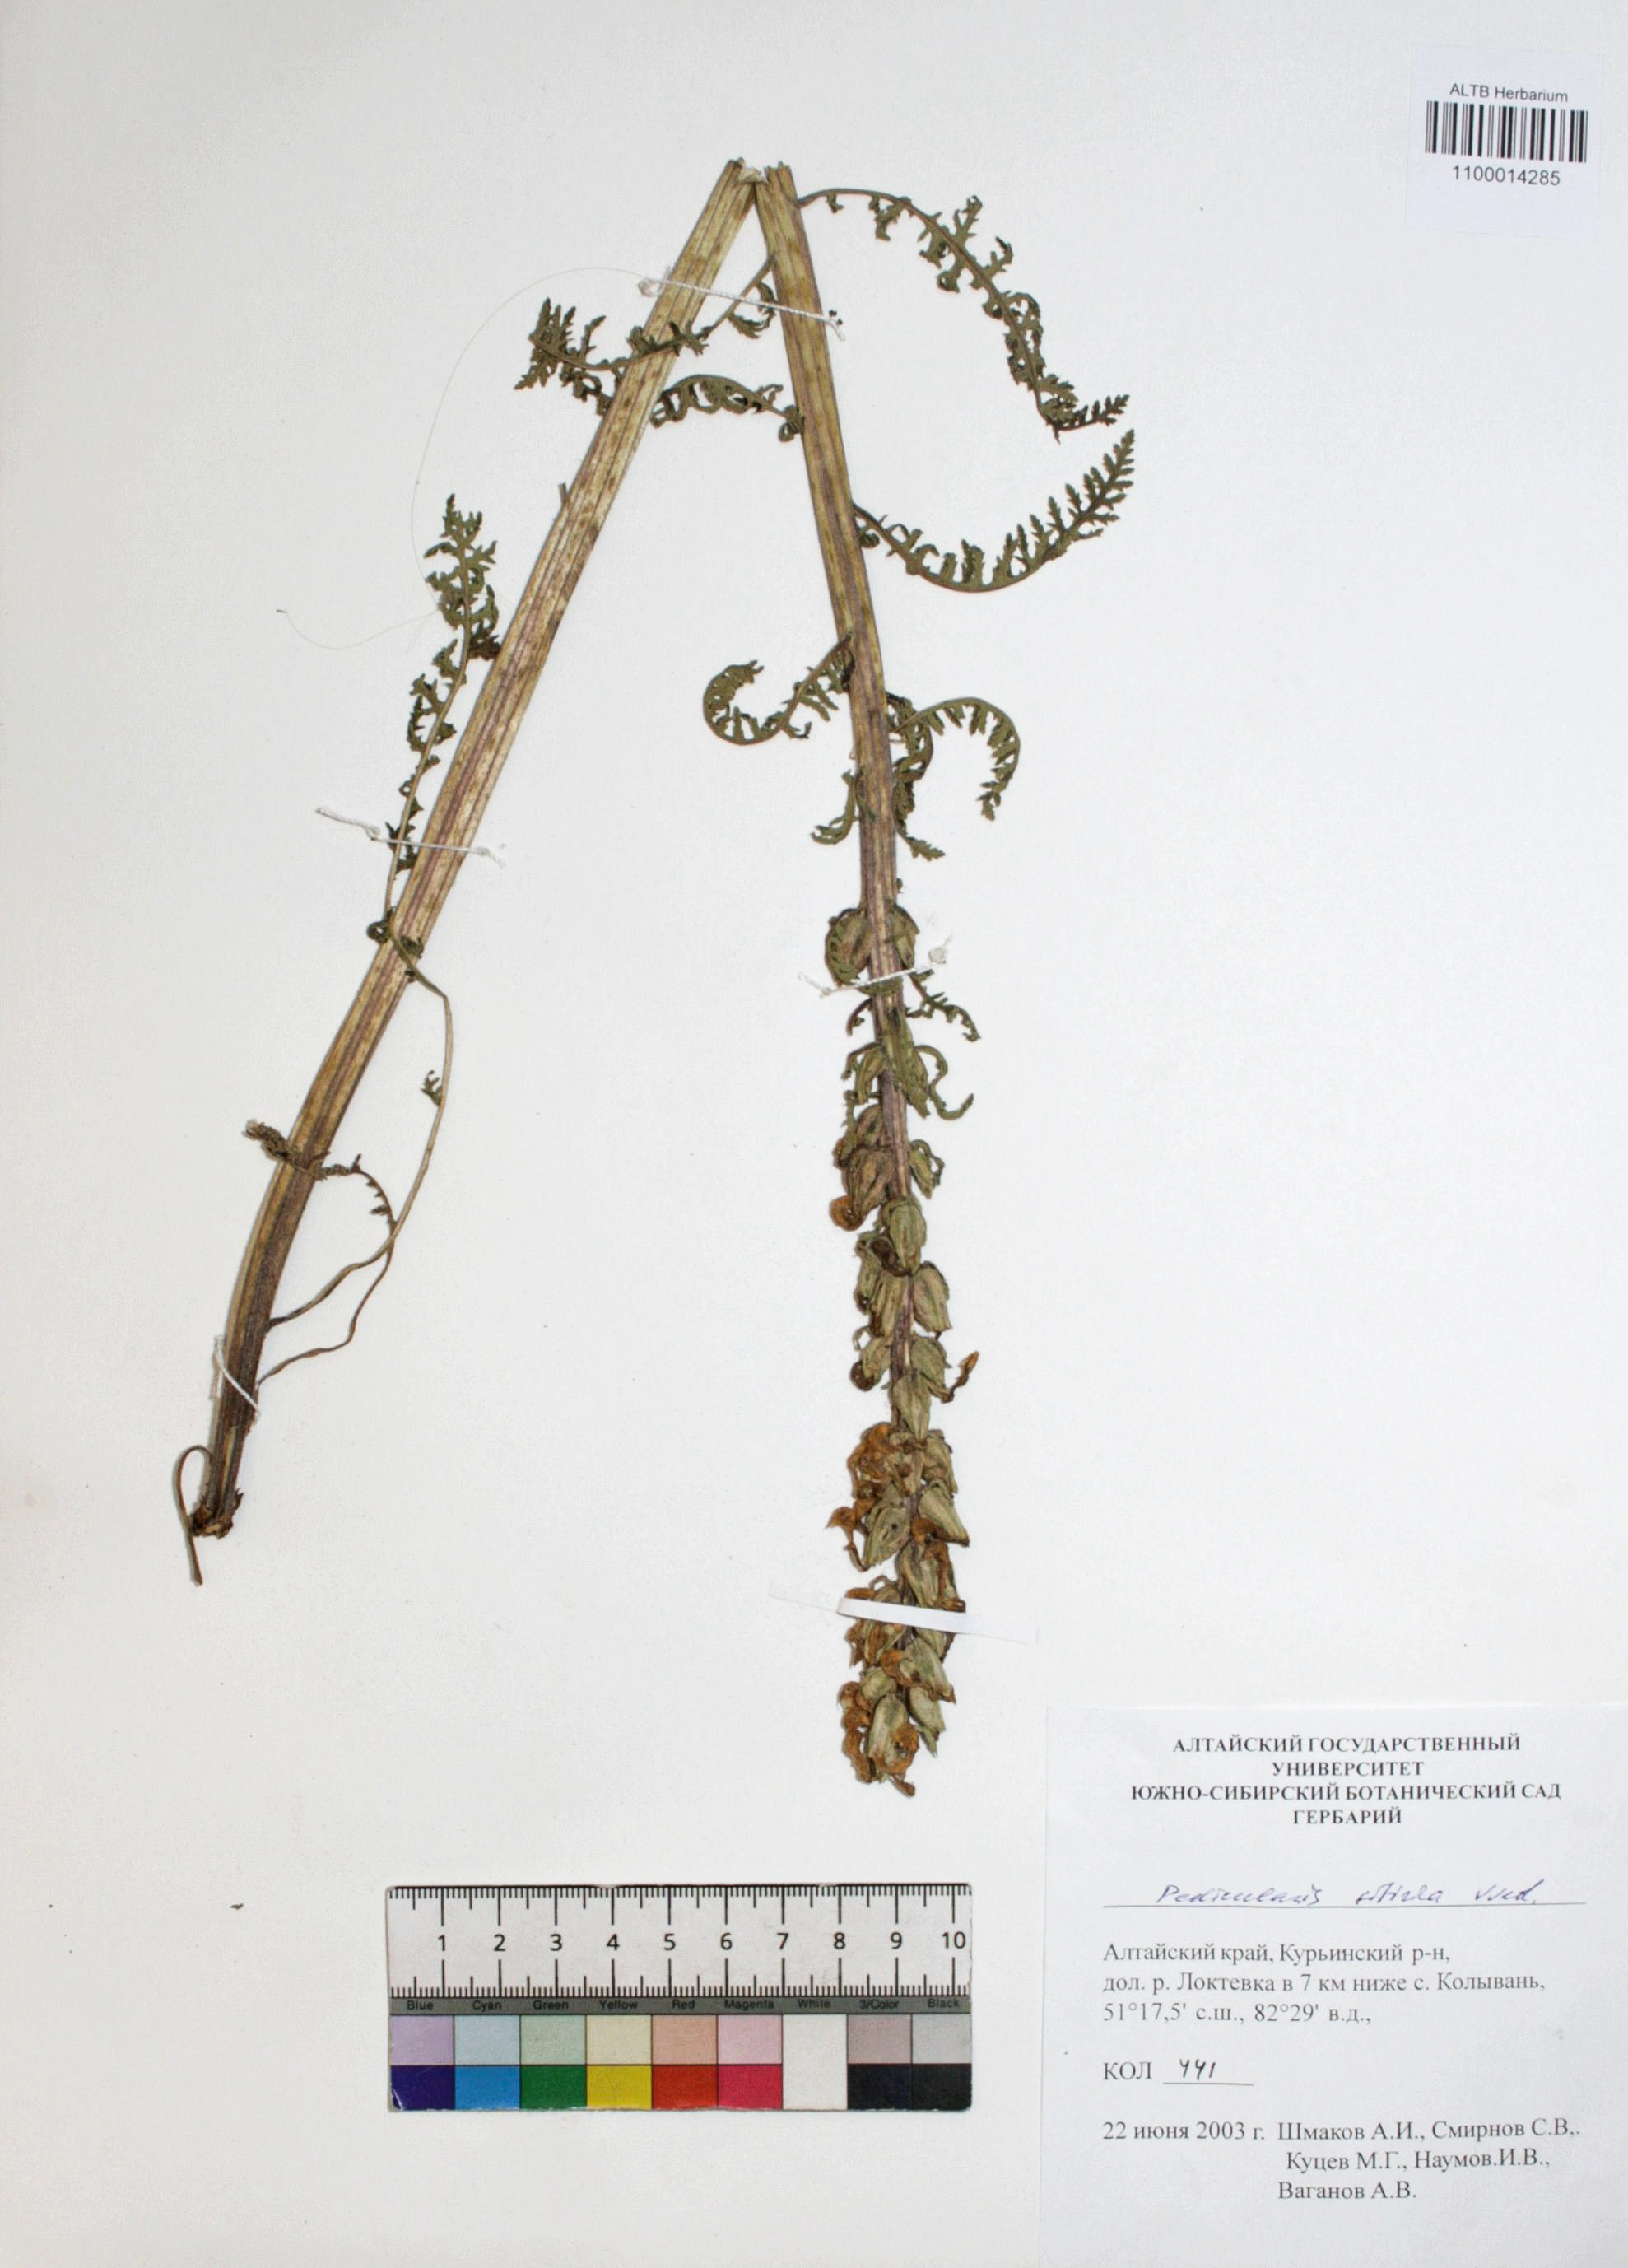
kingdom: Plantae
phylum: Tracheophyta
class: Magnoliopsida
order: Lamiales
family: Orobanchaceae
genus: Pedicularis
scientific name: Pedicularis sibirica
